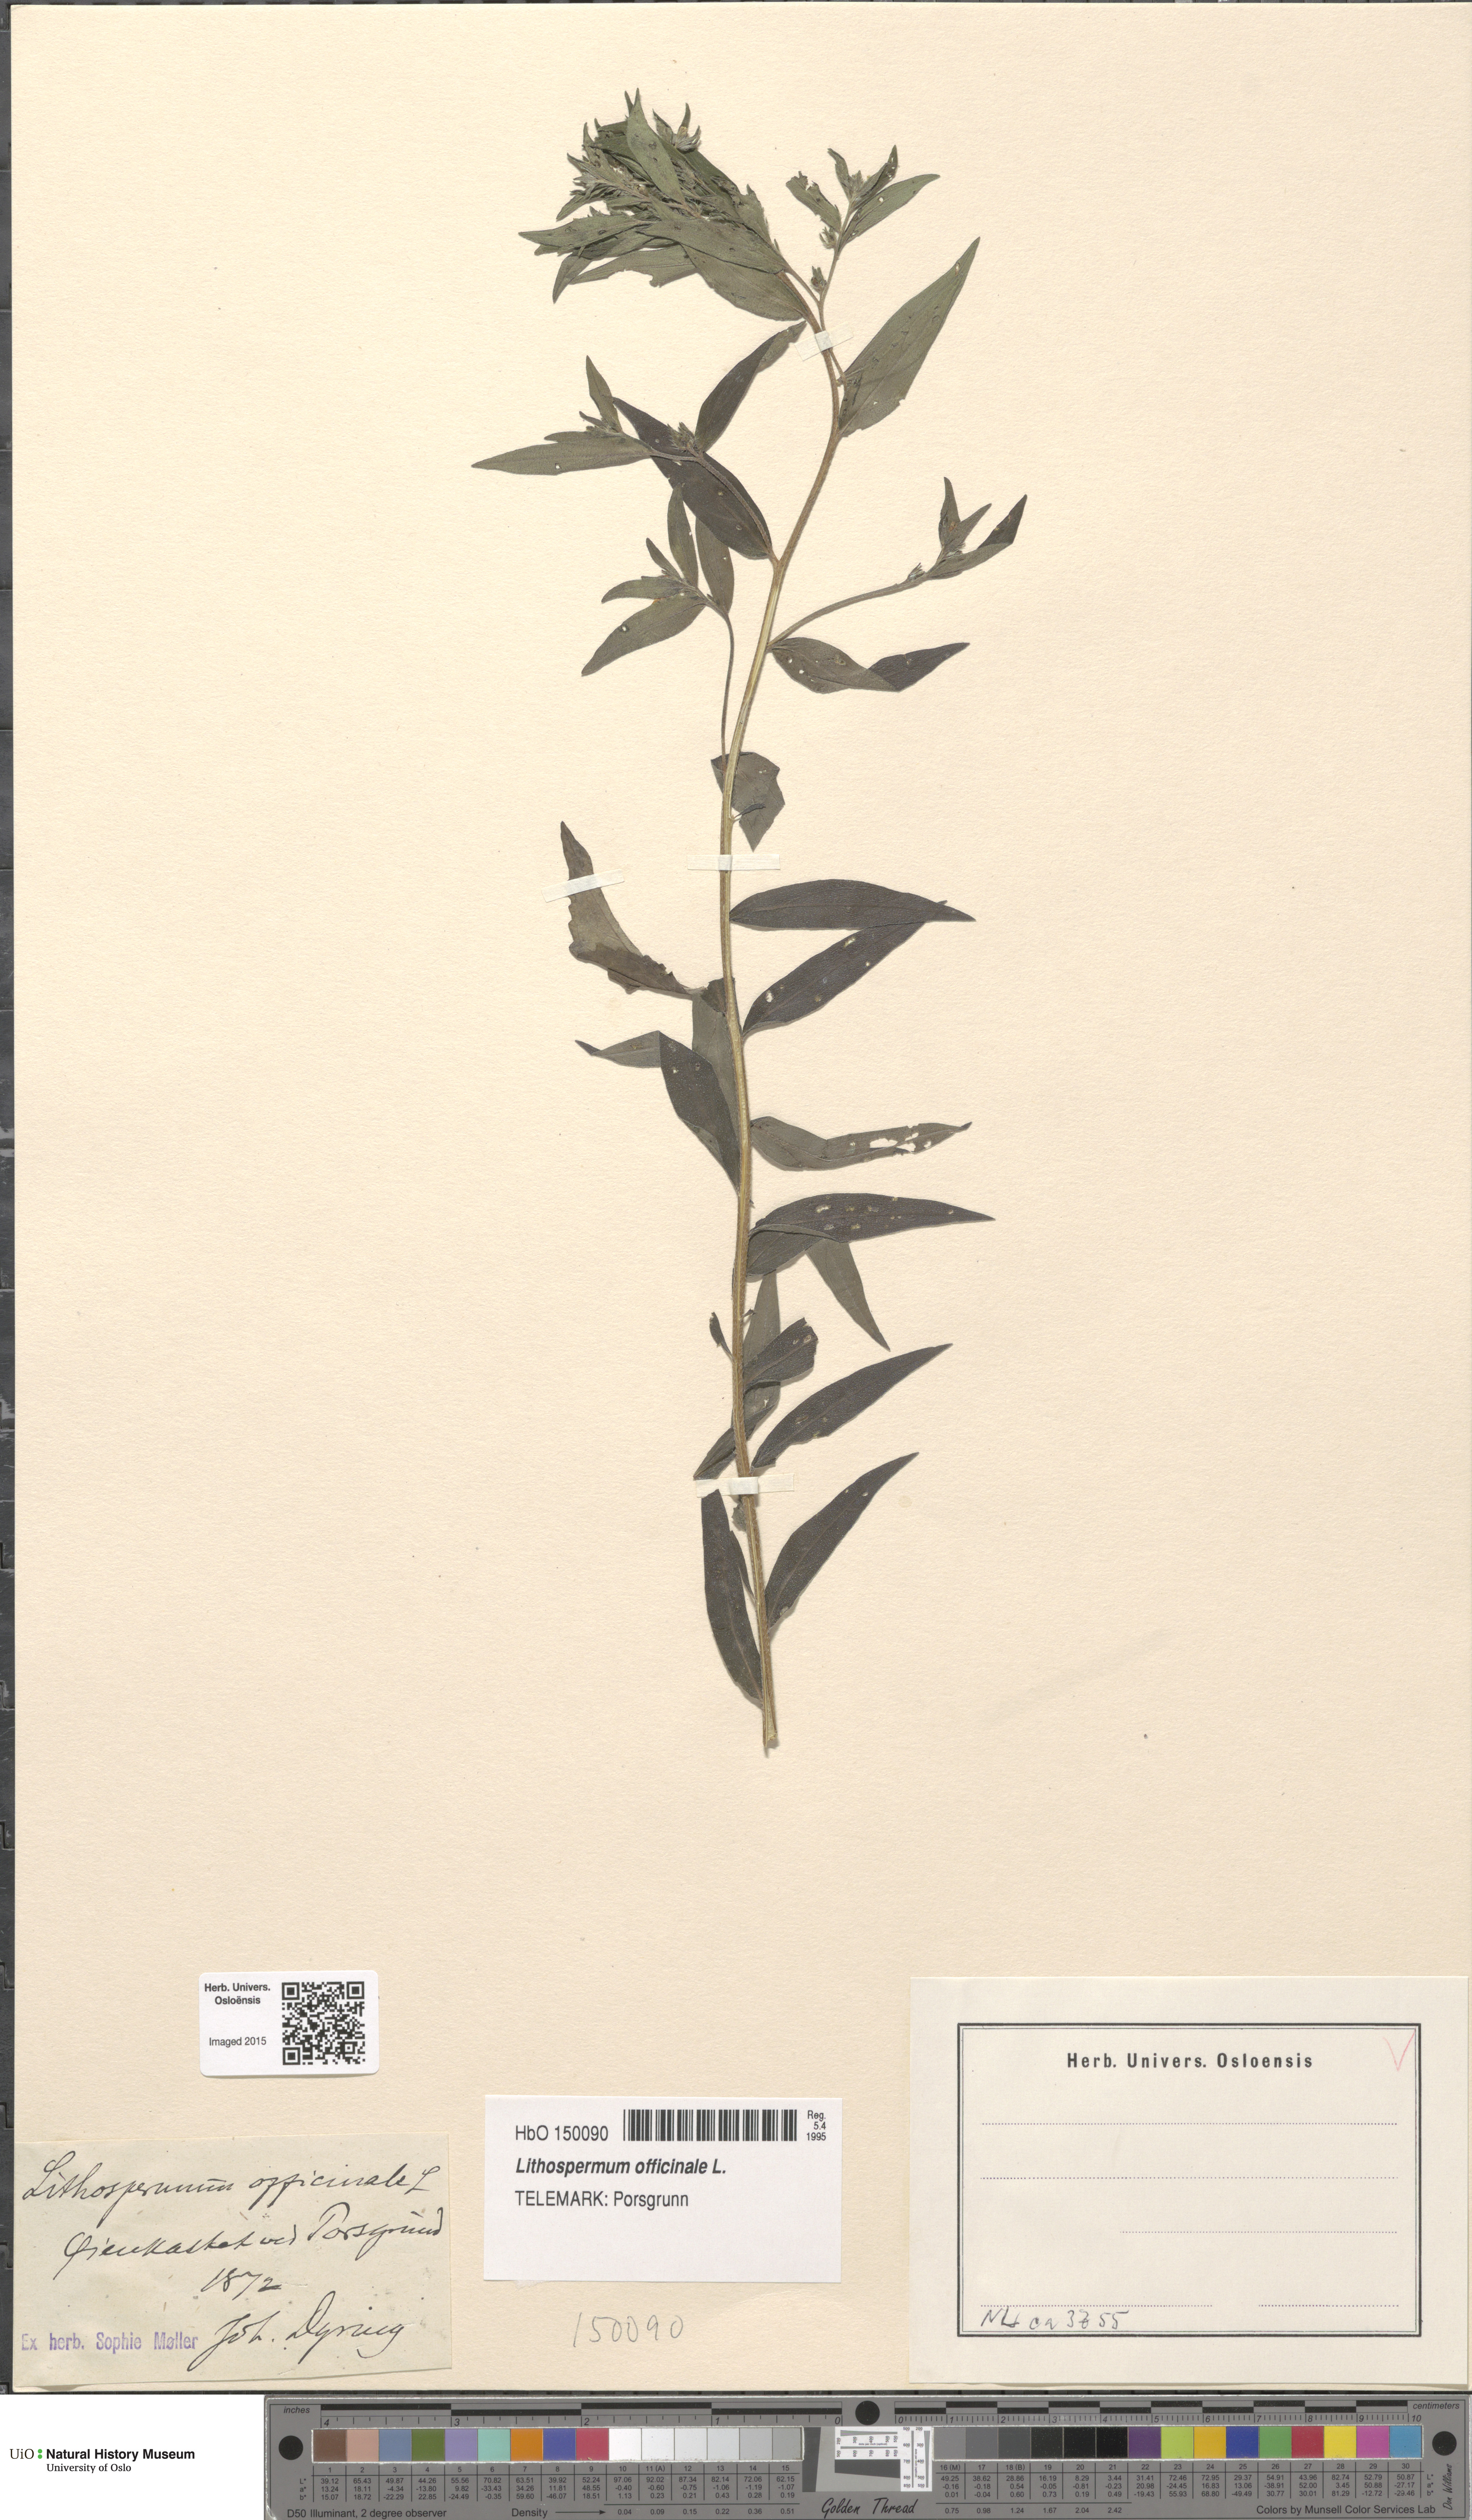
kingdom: Plantae
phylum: Tracheophyta
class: Magnoliopsida
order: Boraginales
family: Boraginaceae
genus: Lithospermum
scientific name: Lithospermum officinale
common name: Common gromwell
